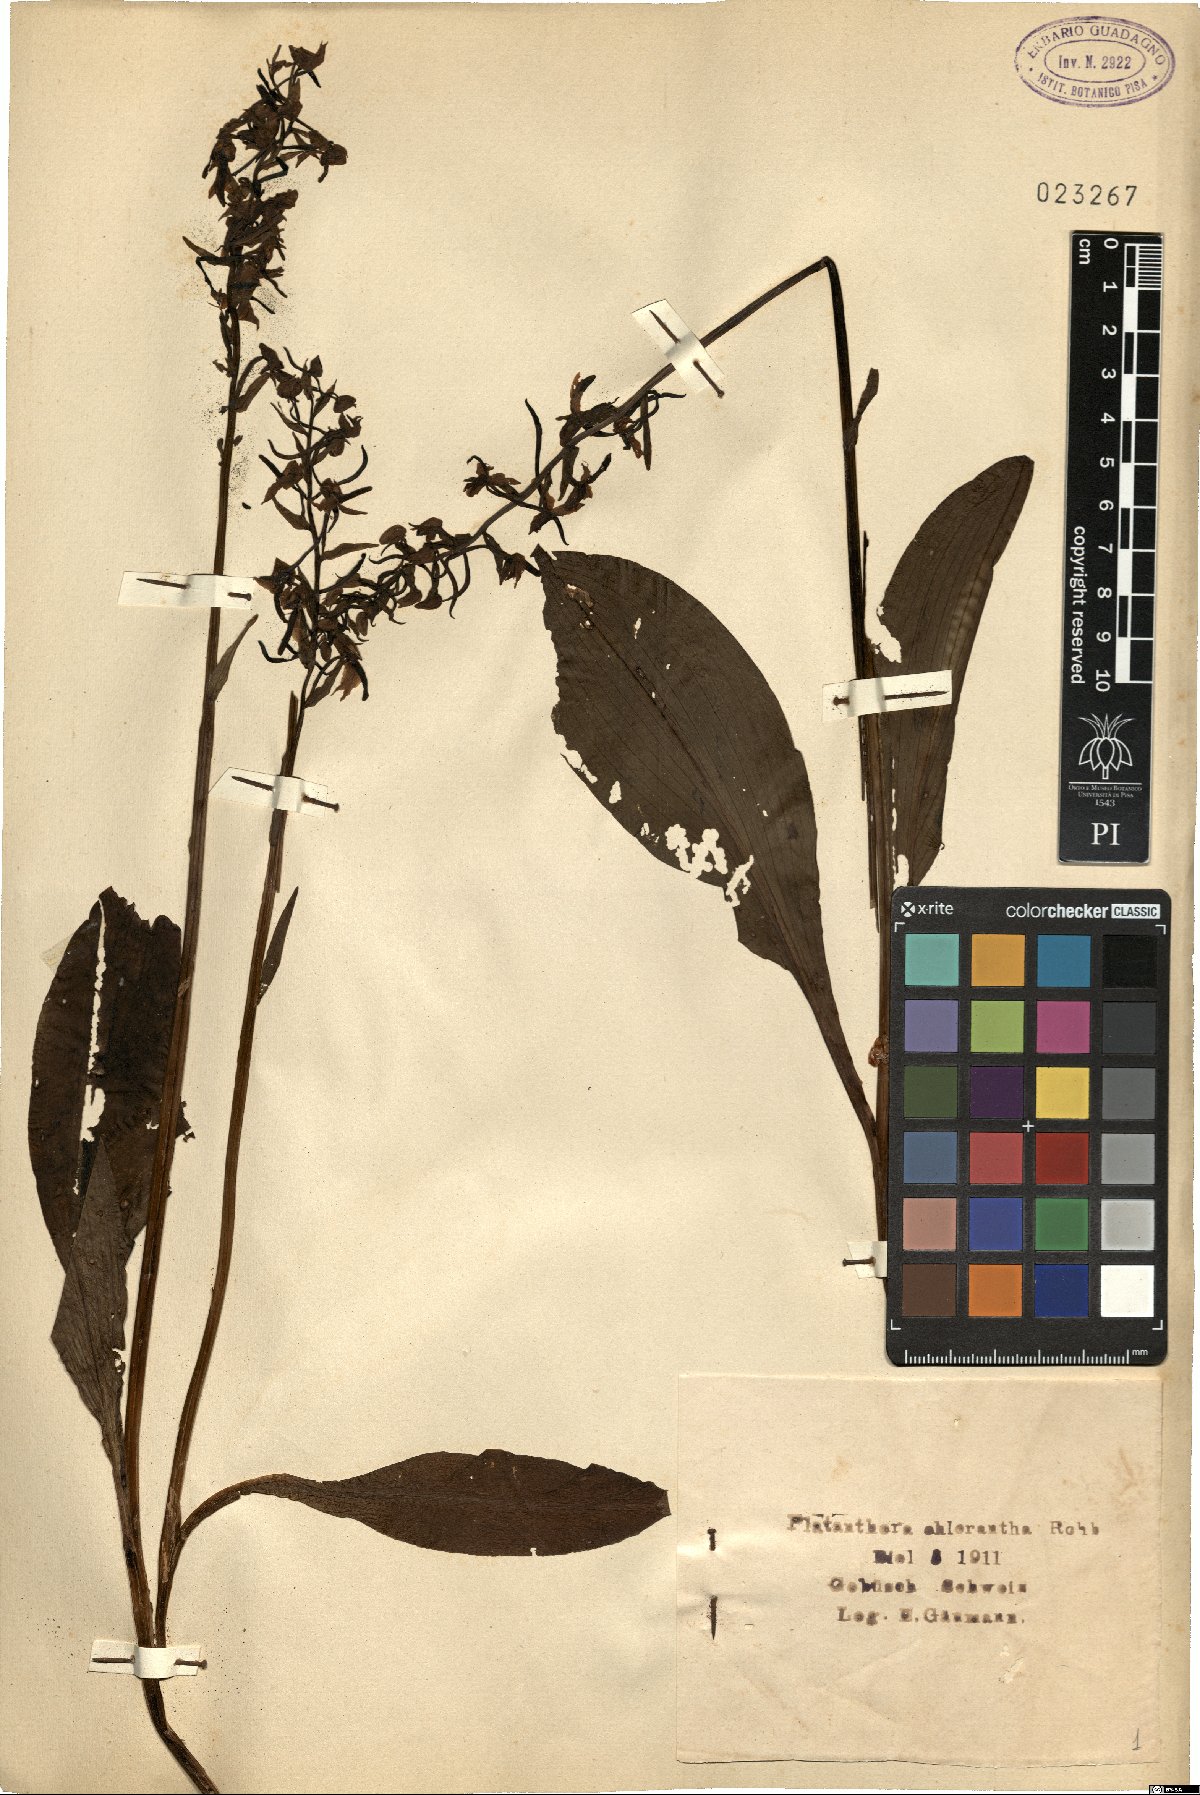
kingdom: Plantae
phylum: Tracheophyta
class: Liliopsida
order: Asparagales
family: Orchidaceae
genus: Platanthera
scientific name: Platanthera chlorantha
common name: Greater butterfly-orchid
